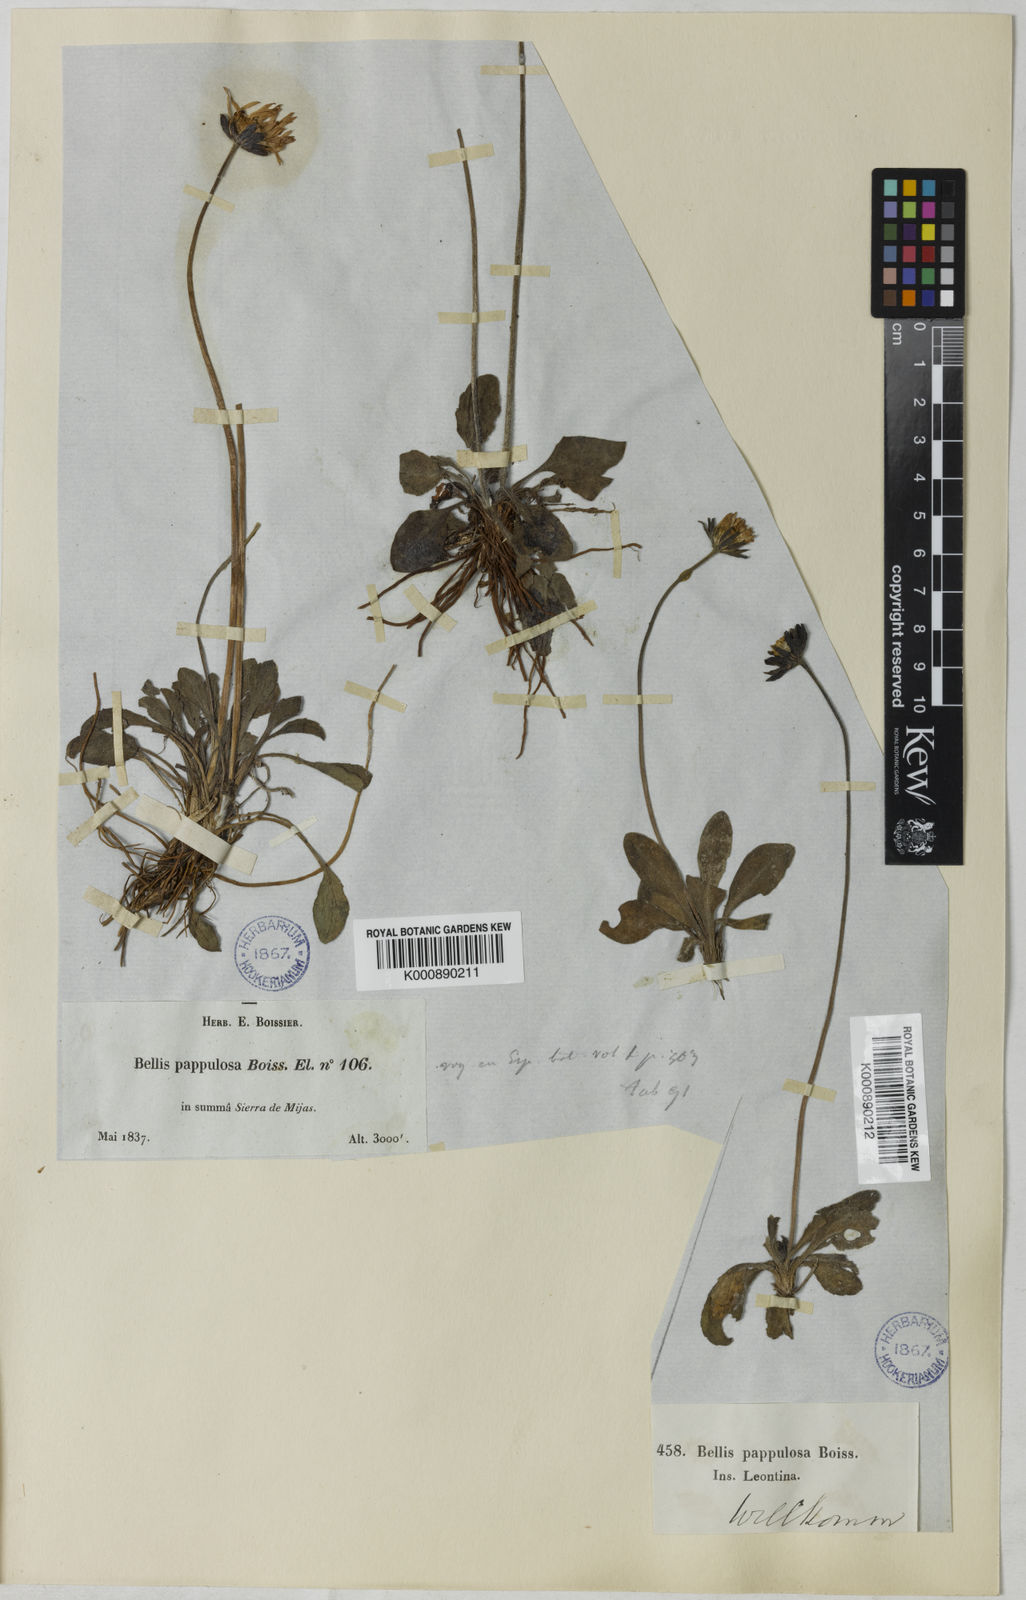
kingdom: Plantae
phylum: Tracheophyta
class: Magnoliopsida
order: Asterales
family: Asteraceae
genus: Bellis
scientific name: Bellis
